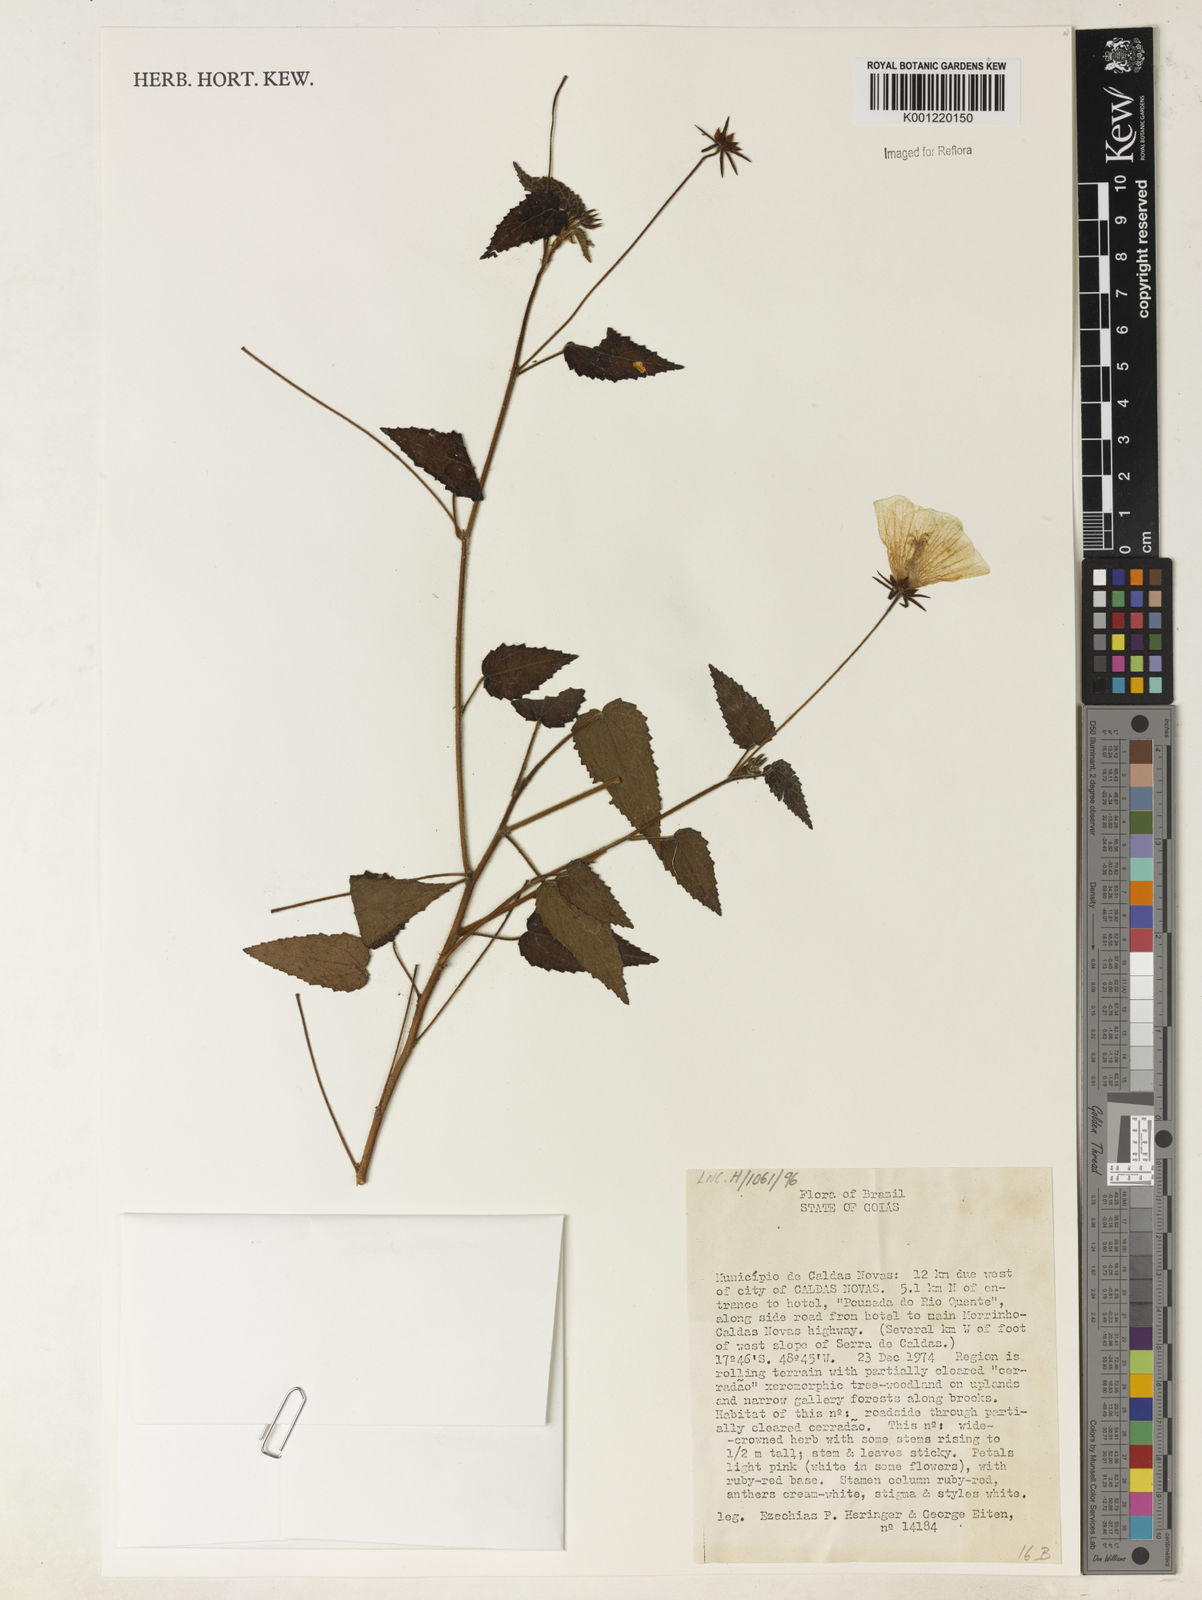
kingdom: Plantae
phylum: Tracheophyta
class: Magnoliopsida
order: Malvales
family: Malvaceae
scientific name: Malvaceae
